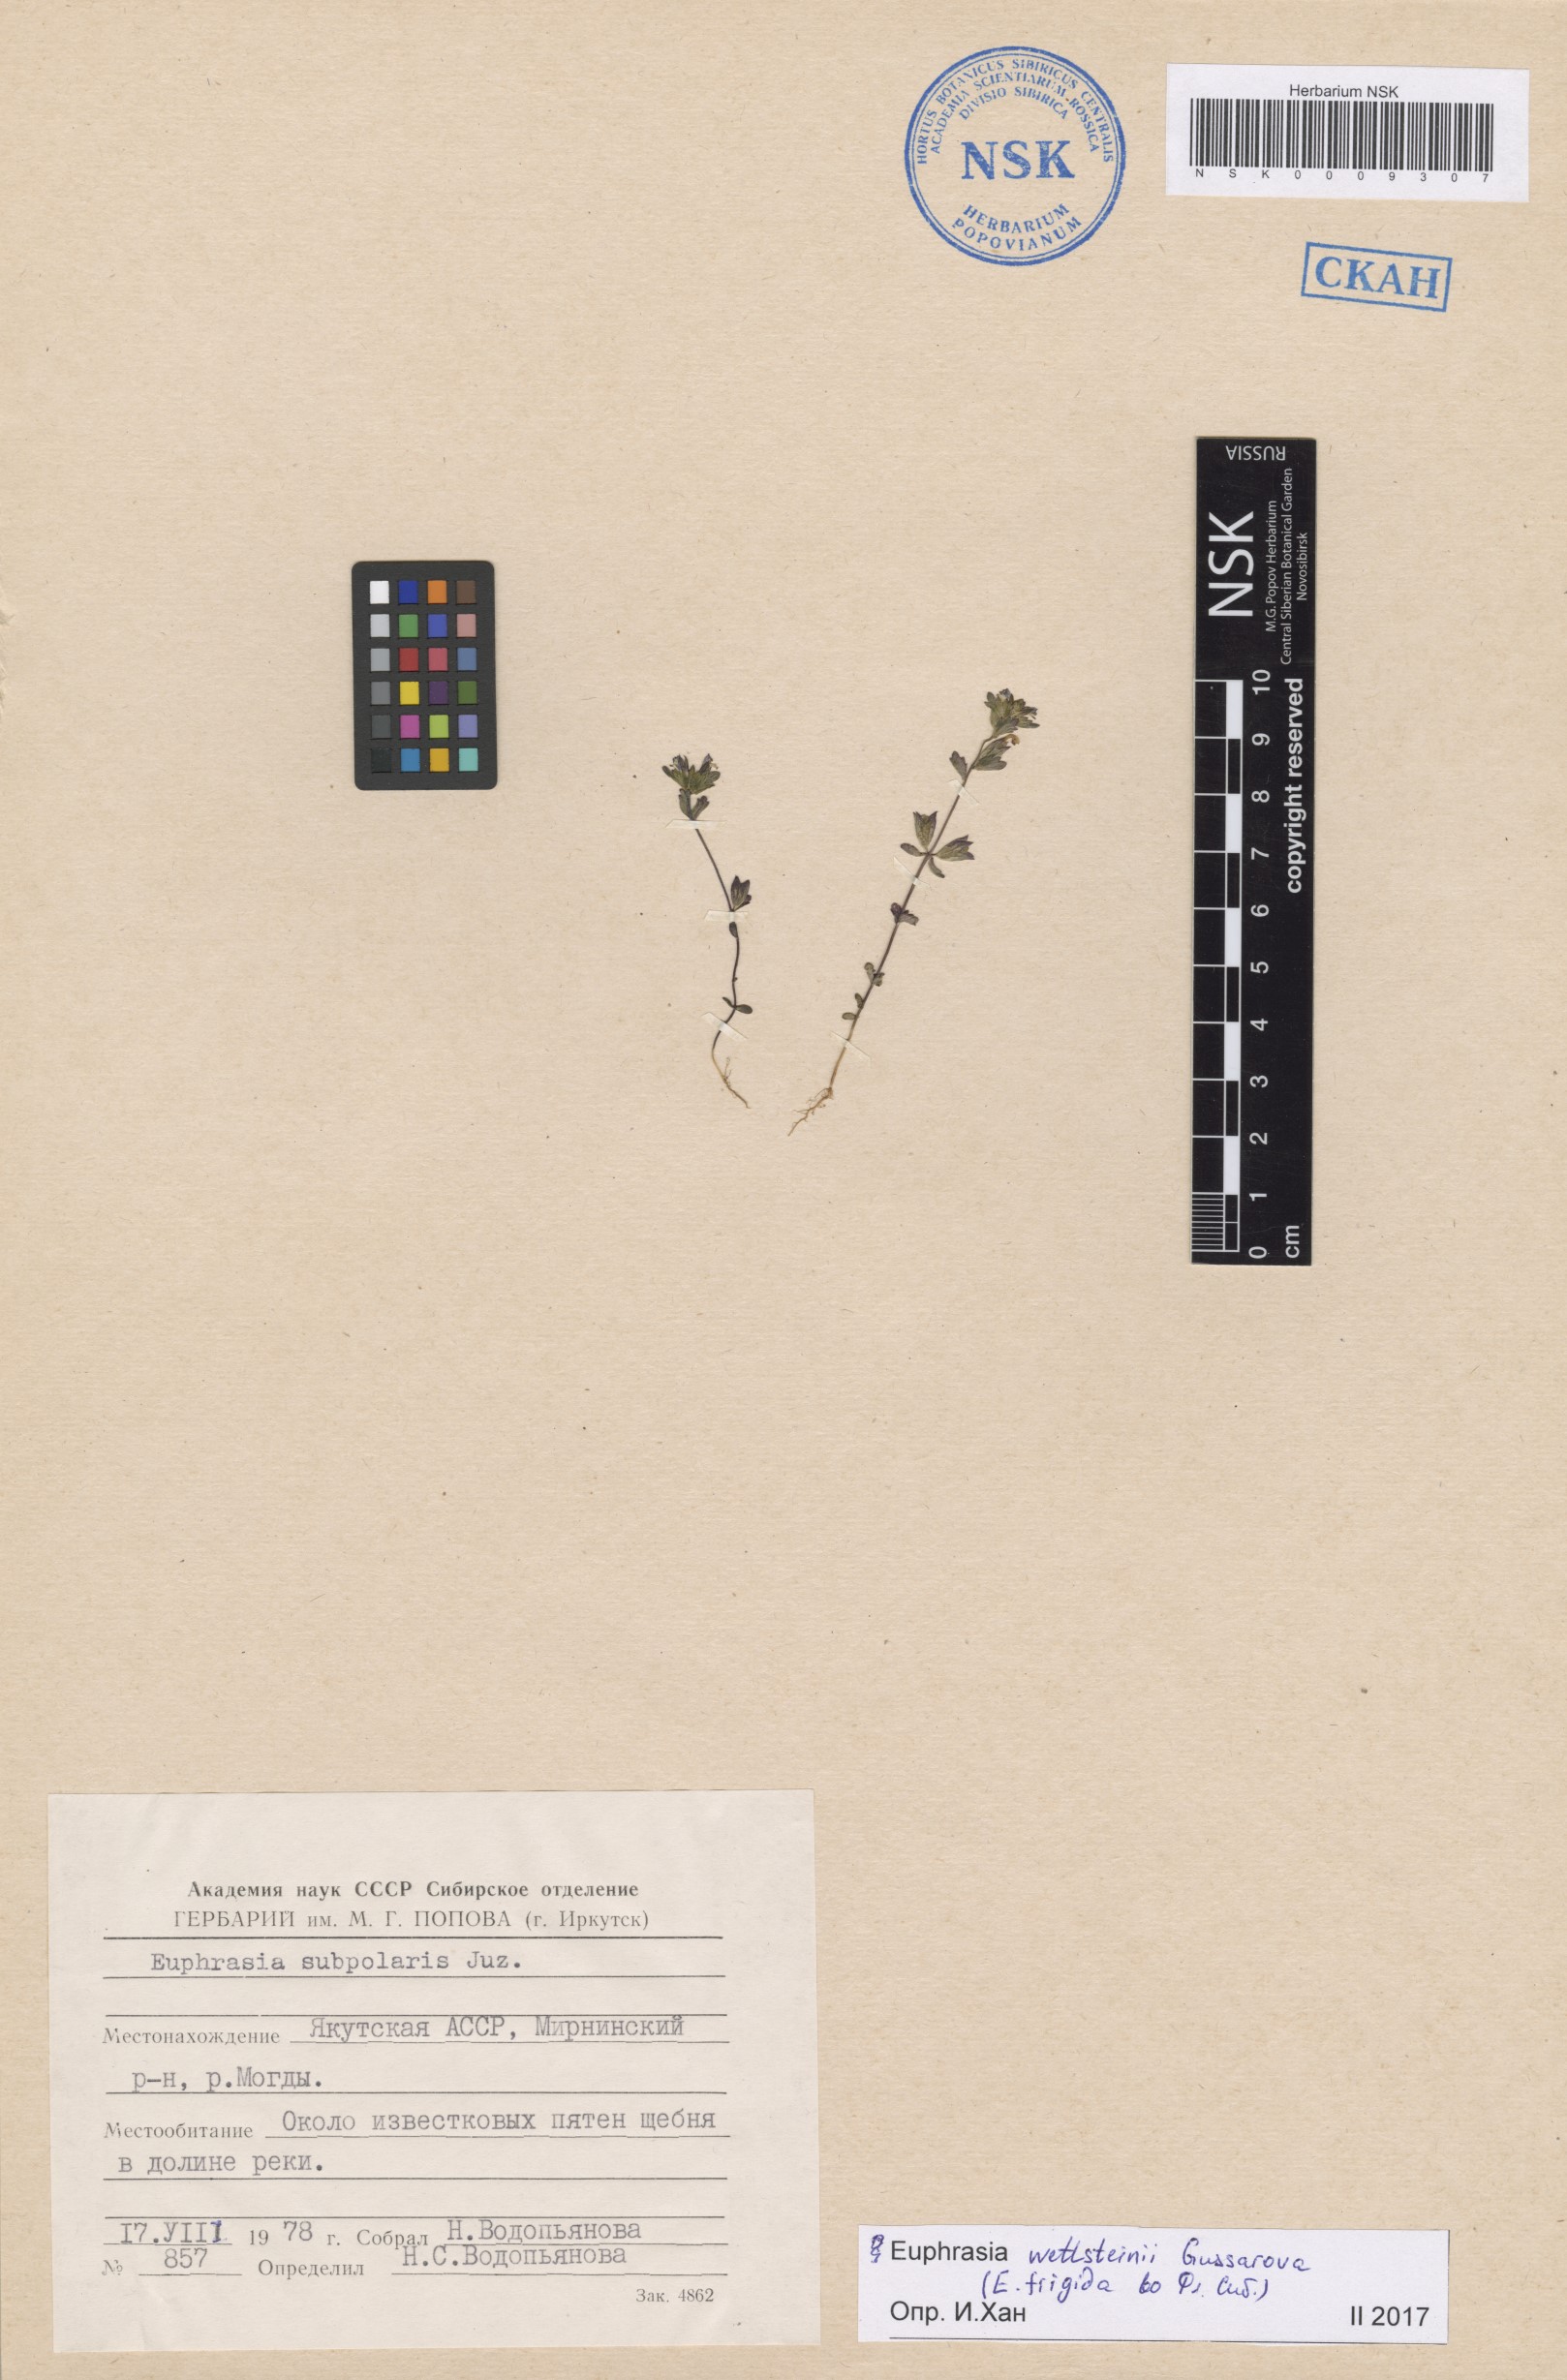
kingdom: Plantae
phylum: Tracheophyta
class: Magnoliopsida
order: Lamiales
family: Orobanchaceae
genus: Euphrasia
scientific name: Euphrasia wettsteinii
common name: Wettstein's eyebright
